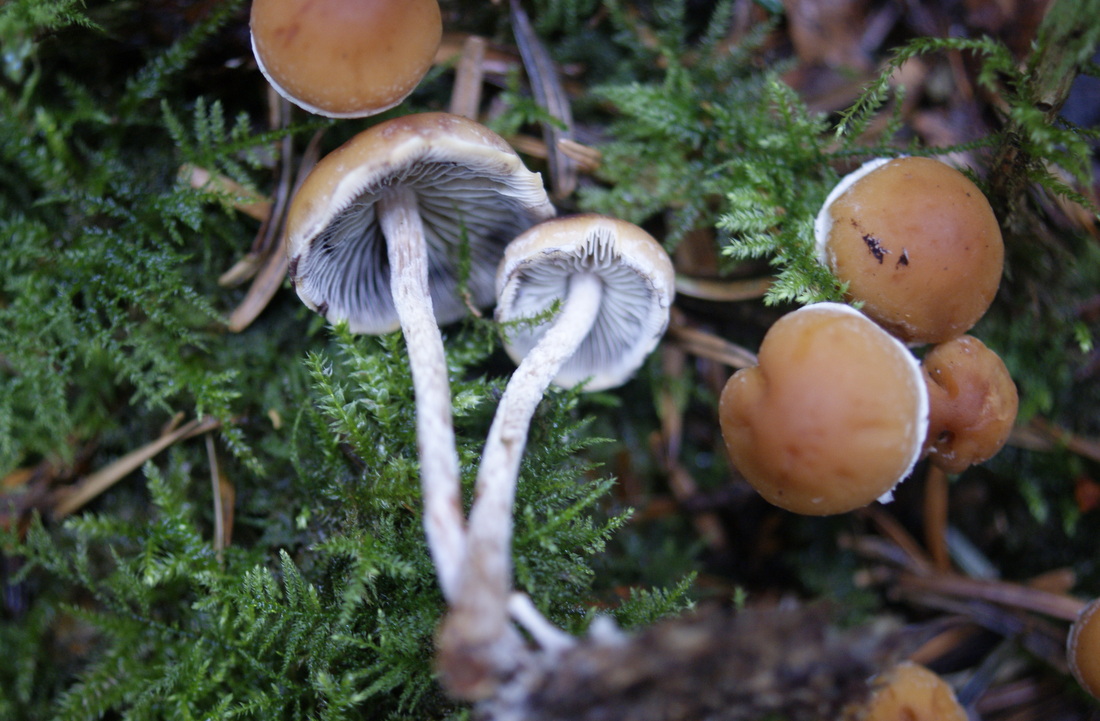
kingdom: Fungi
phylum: Basidiomycota
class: Agaricomycetes
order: Agaricales
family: Strophariaceae
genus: Hypholoma
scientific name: Hypholoma marginatum
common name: enlig svovlhat
